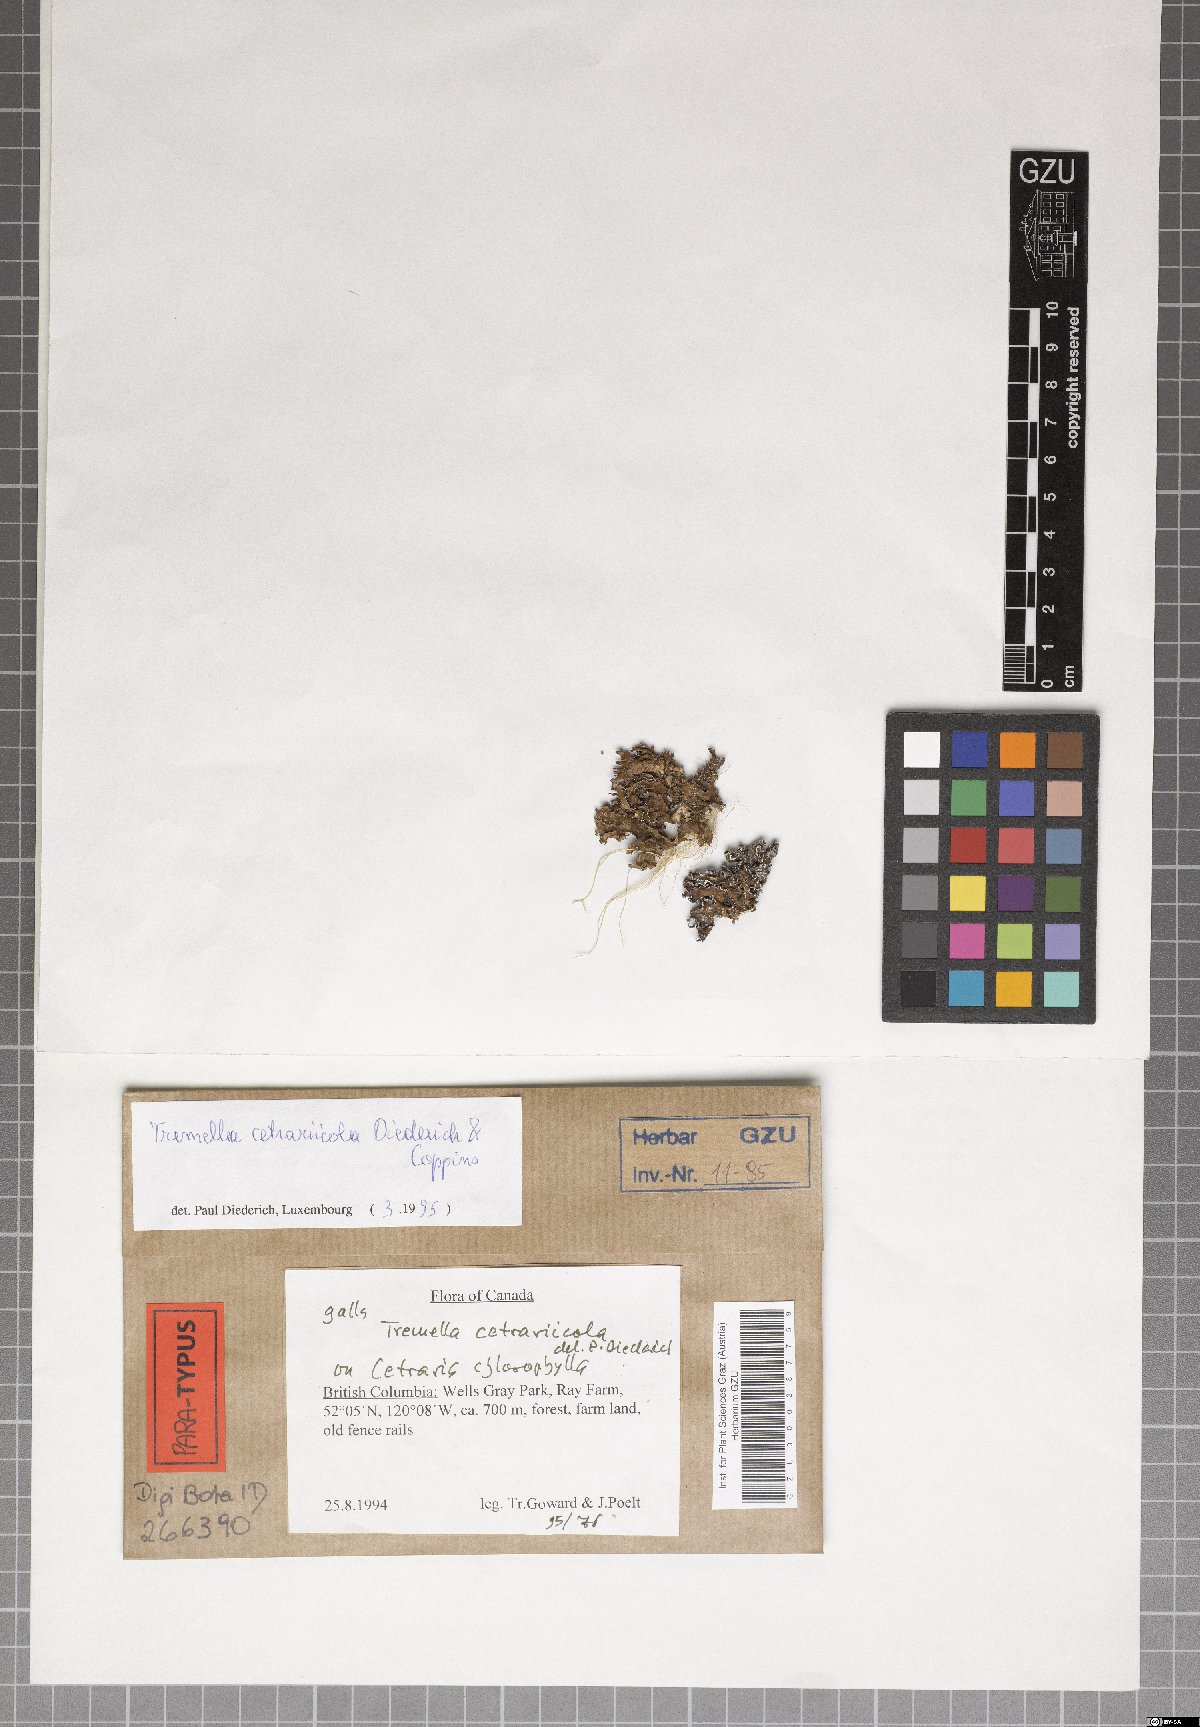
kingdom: Fungi
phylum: Basidiomycota
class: Tremellomycetes
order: Tremellales
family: Tremellaceae
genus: Tremella
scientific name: Tremella cetrariicola
